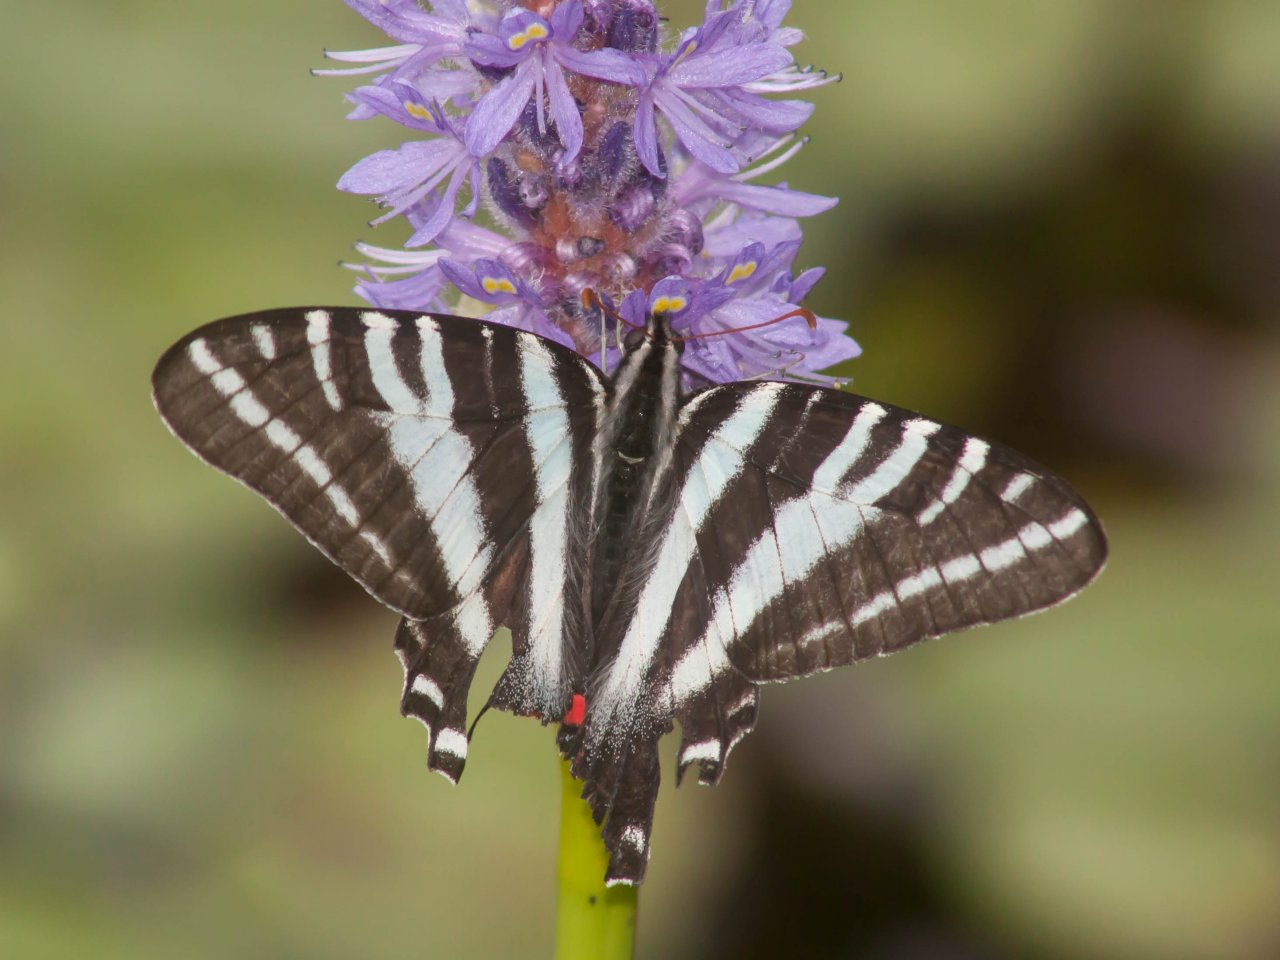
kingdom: Animalia
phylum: Arthropoda
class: Insecta
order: Lepidoptera
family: Papilionidae
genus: Protographium
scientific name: Protographium marcellus
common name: Zebra Swallowtail
